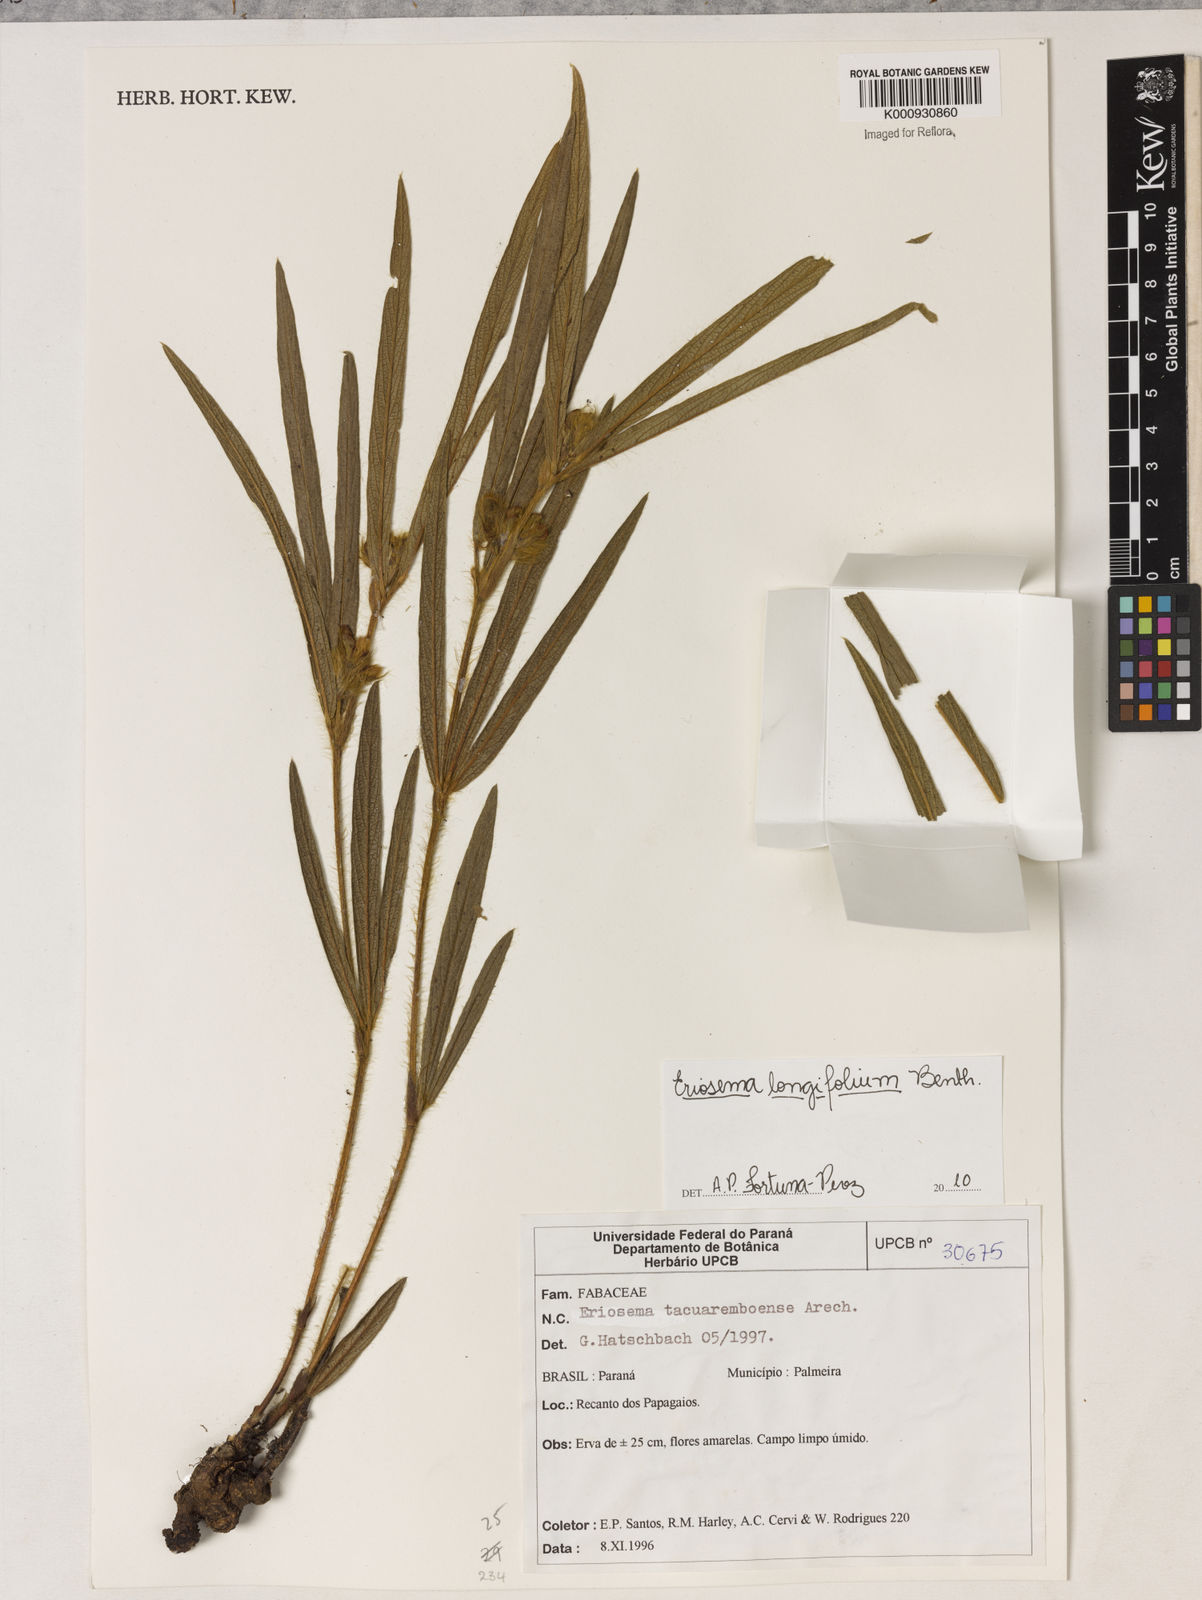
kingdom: Plantae
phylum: Tracheophyta
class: Magnoliopsida
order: Fabales
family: Fabaceae
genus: Eriosema
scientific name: Eriosema longifolium
